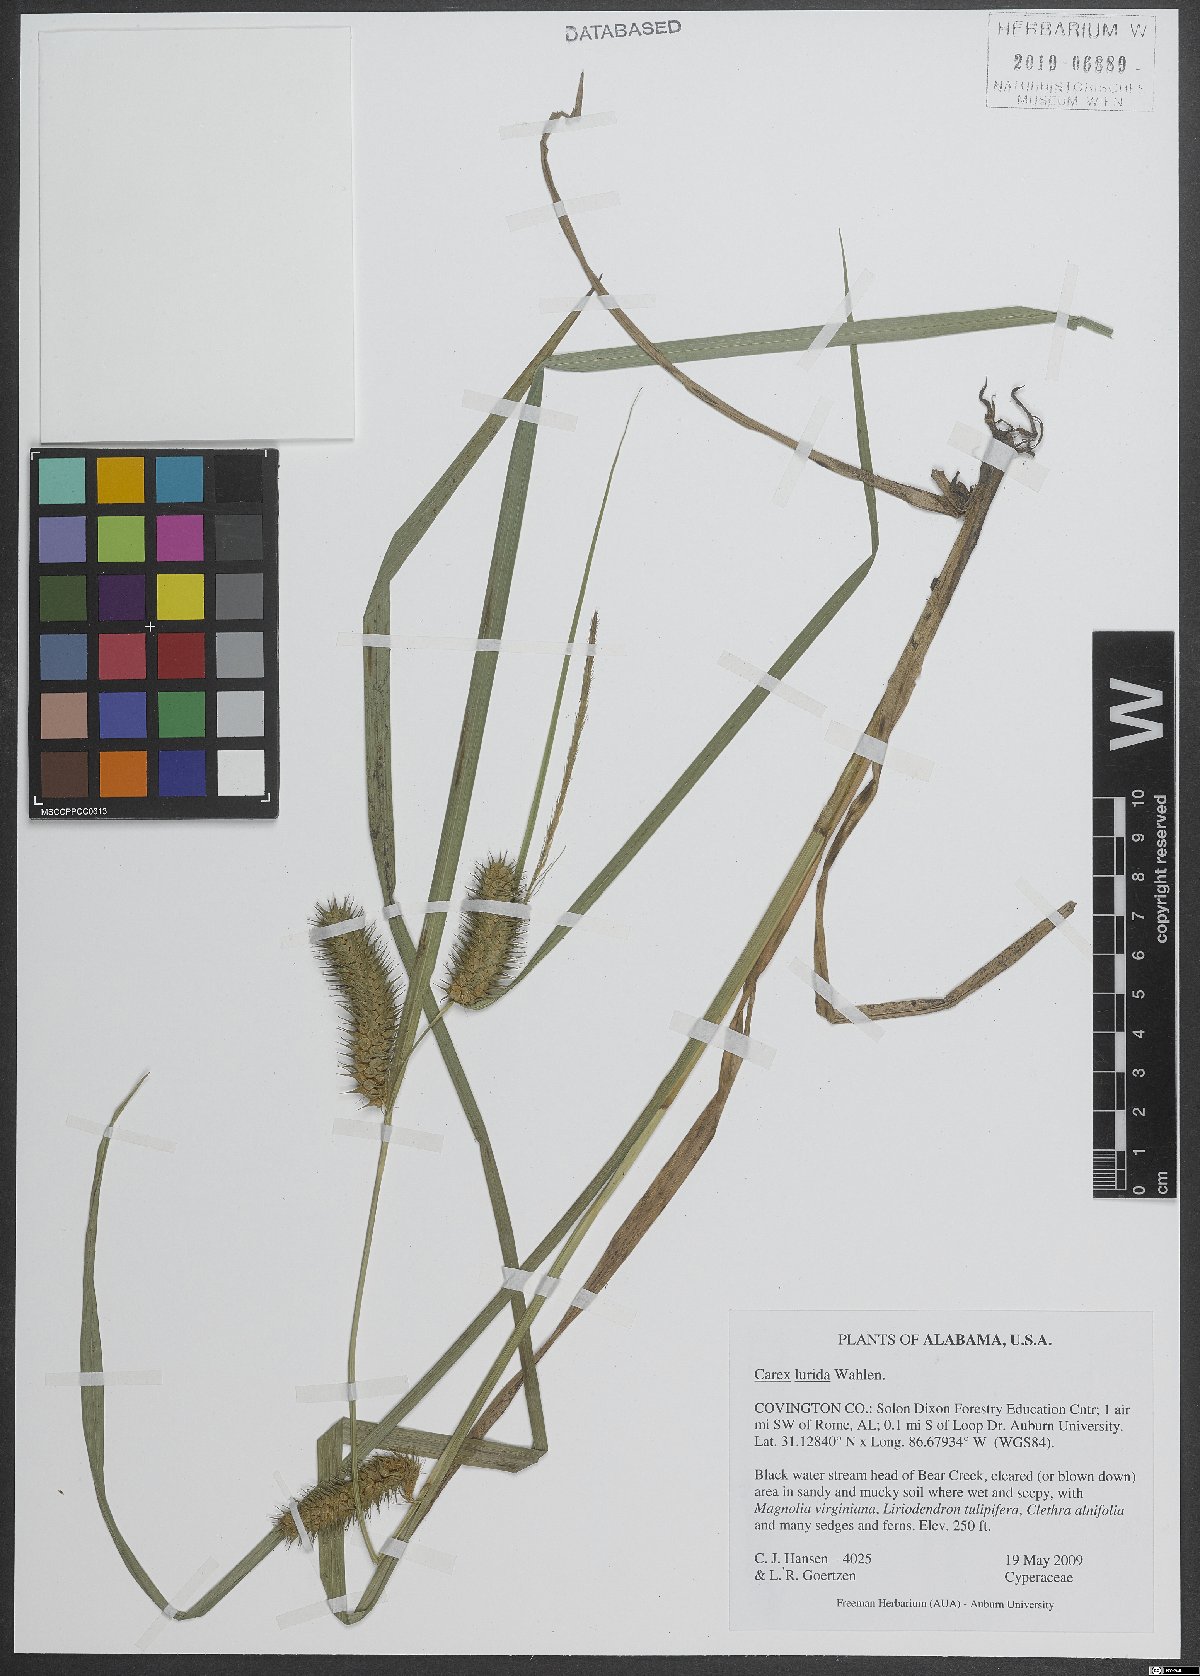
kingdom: Plantae
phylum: Tracheophyta
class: Liliopsida
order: Poales
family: Cyperaceae
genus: Carex
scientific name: Carex lurida
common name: Sallow sedge
